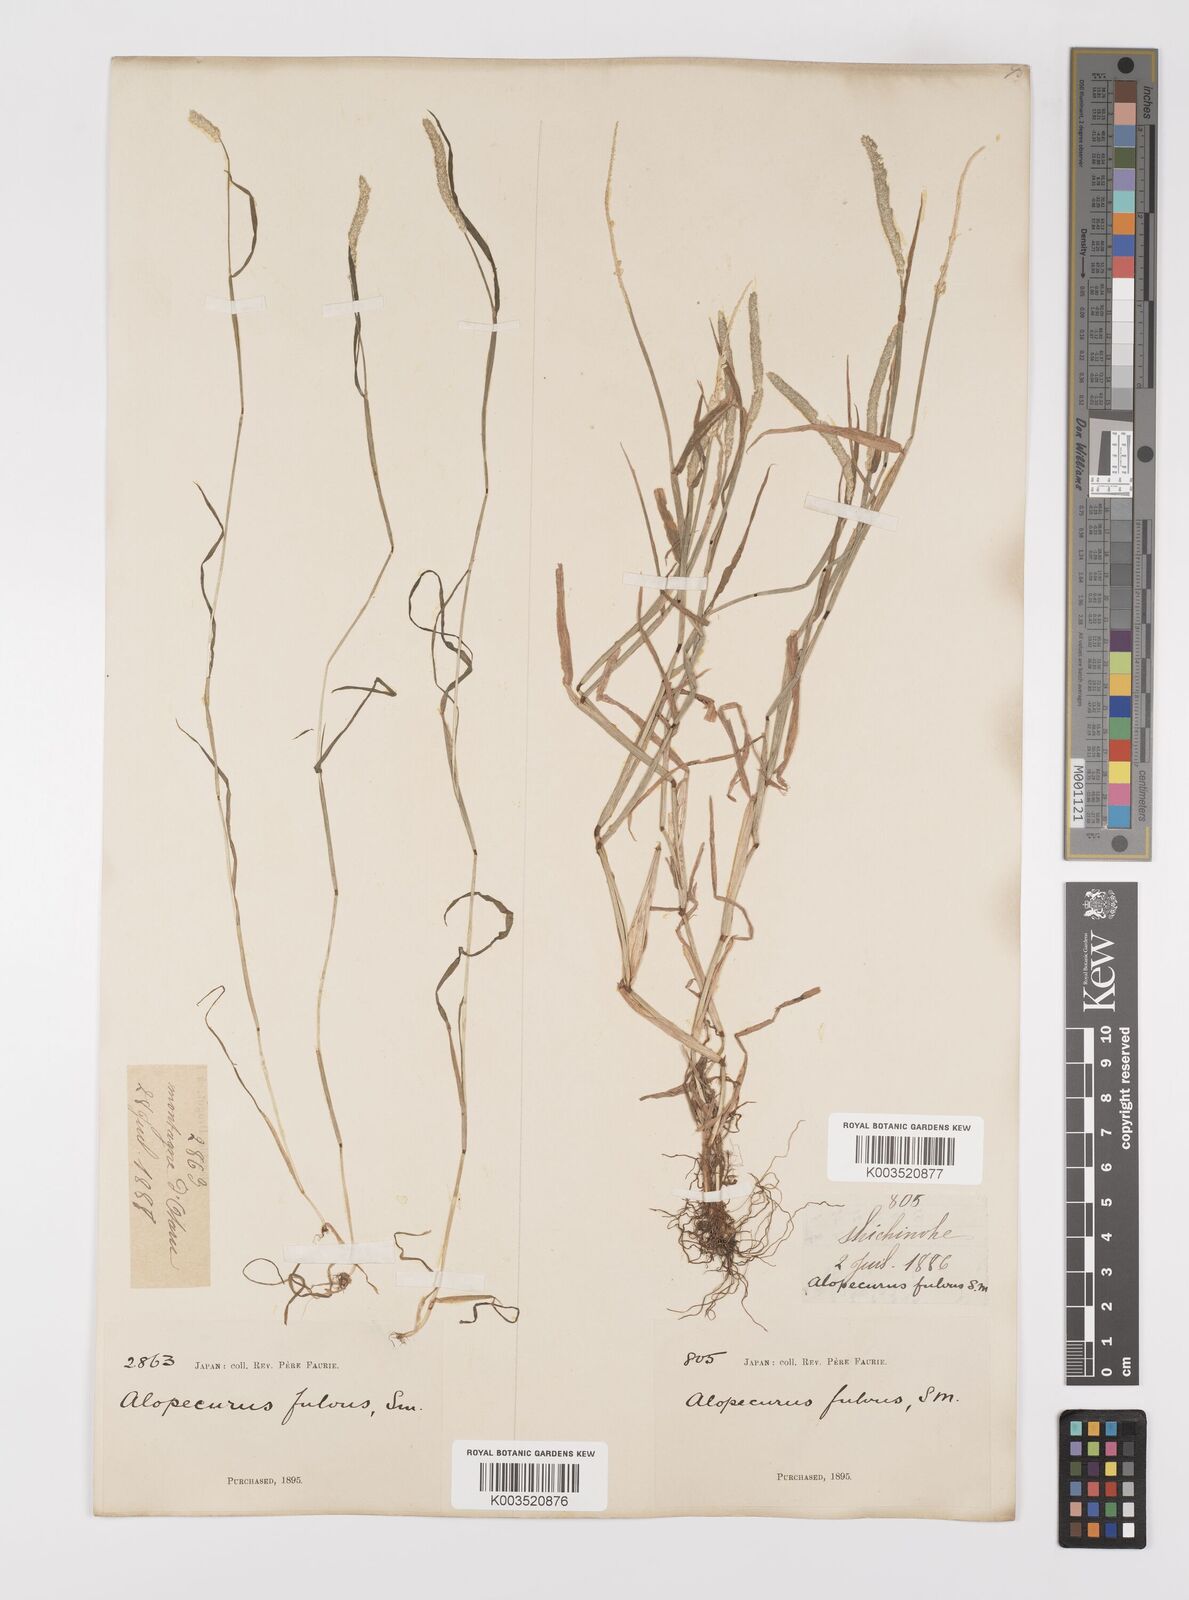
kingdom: Plantae
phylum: Tracheophyta
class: Liliopsida
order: Poales
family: Poaceae
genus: Alopecurus
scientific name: Alopecurus aequalis
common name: Orange foxtail
